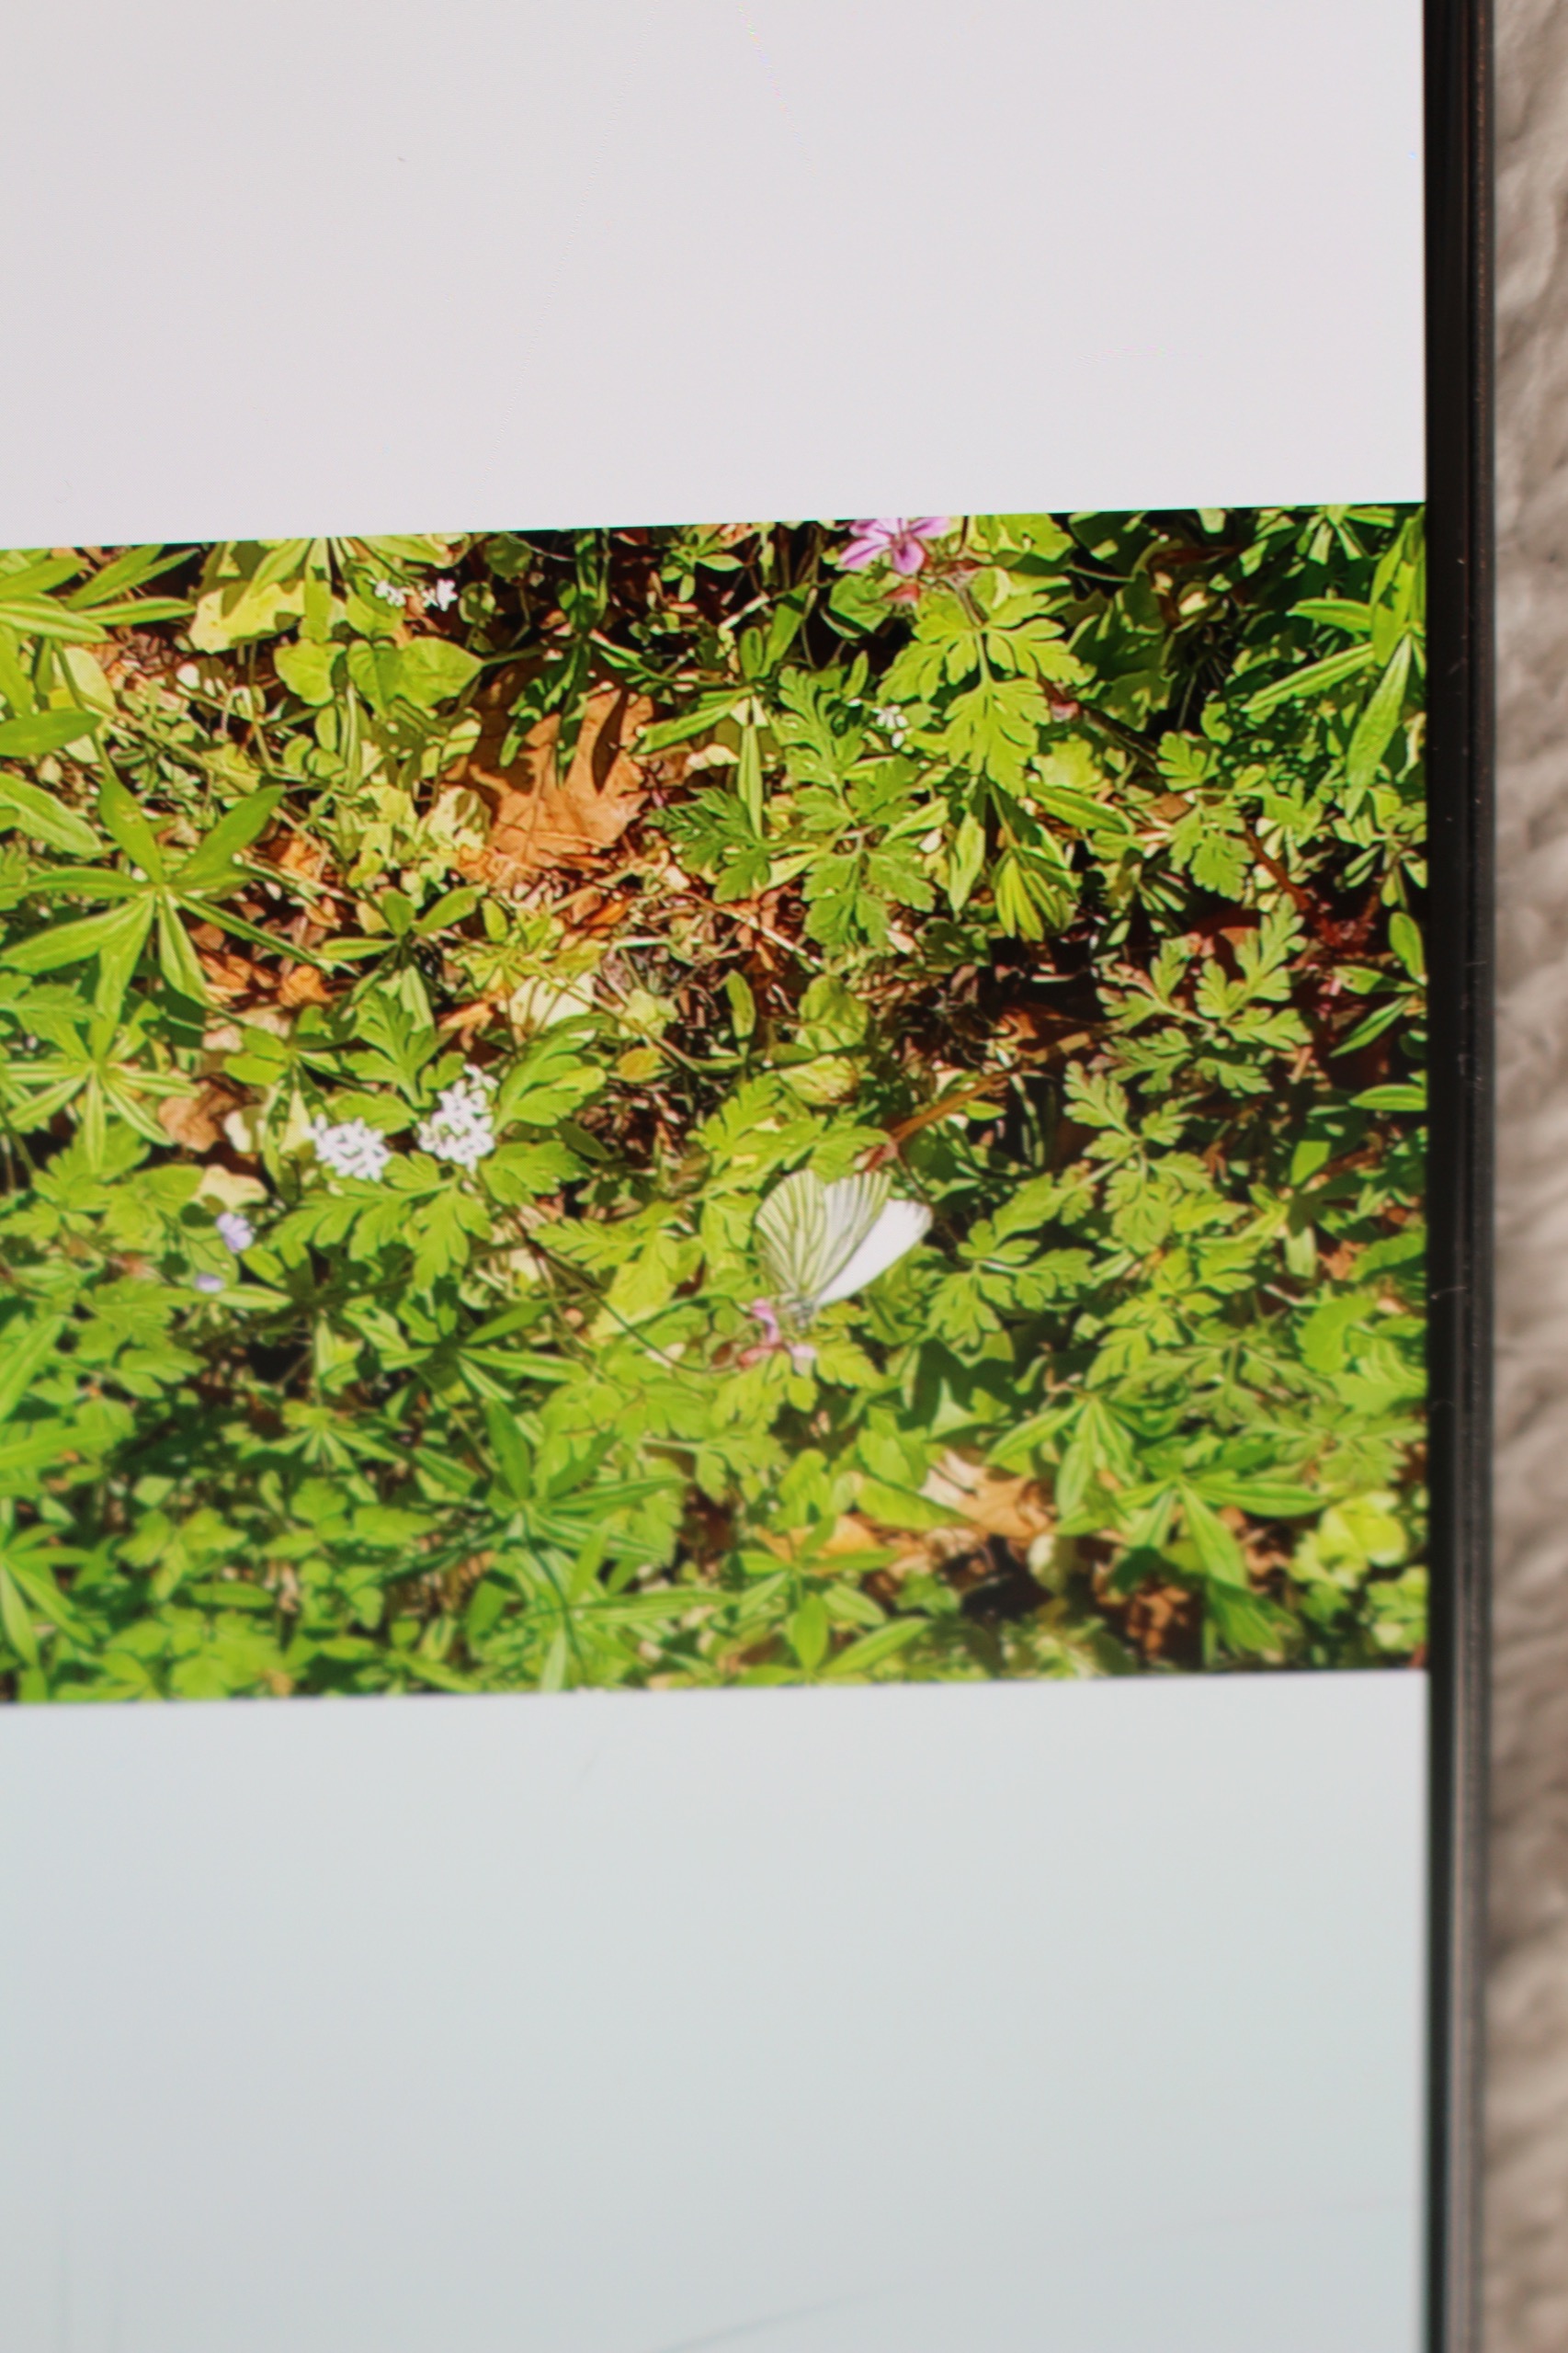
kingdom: Animalia
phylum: Arthropoda
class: Insecta
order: Lepidoptera
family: Pieridae
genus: Pieris
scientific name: Pieris napi
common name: Grønåret kålsommerfugl
